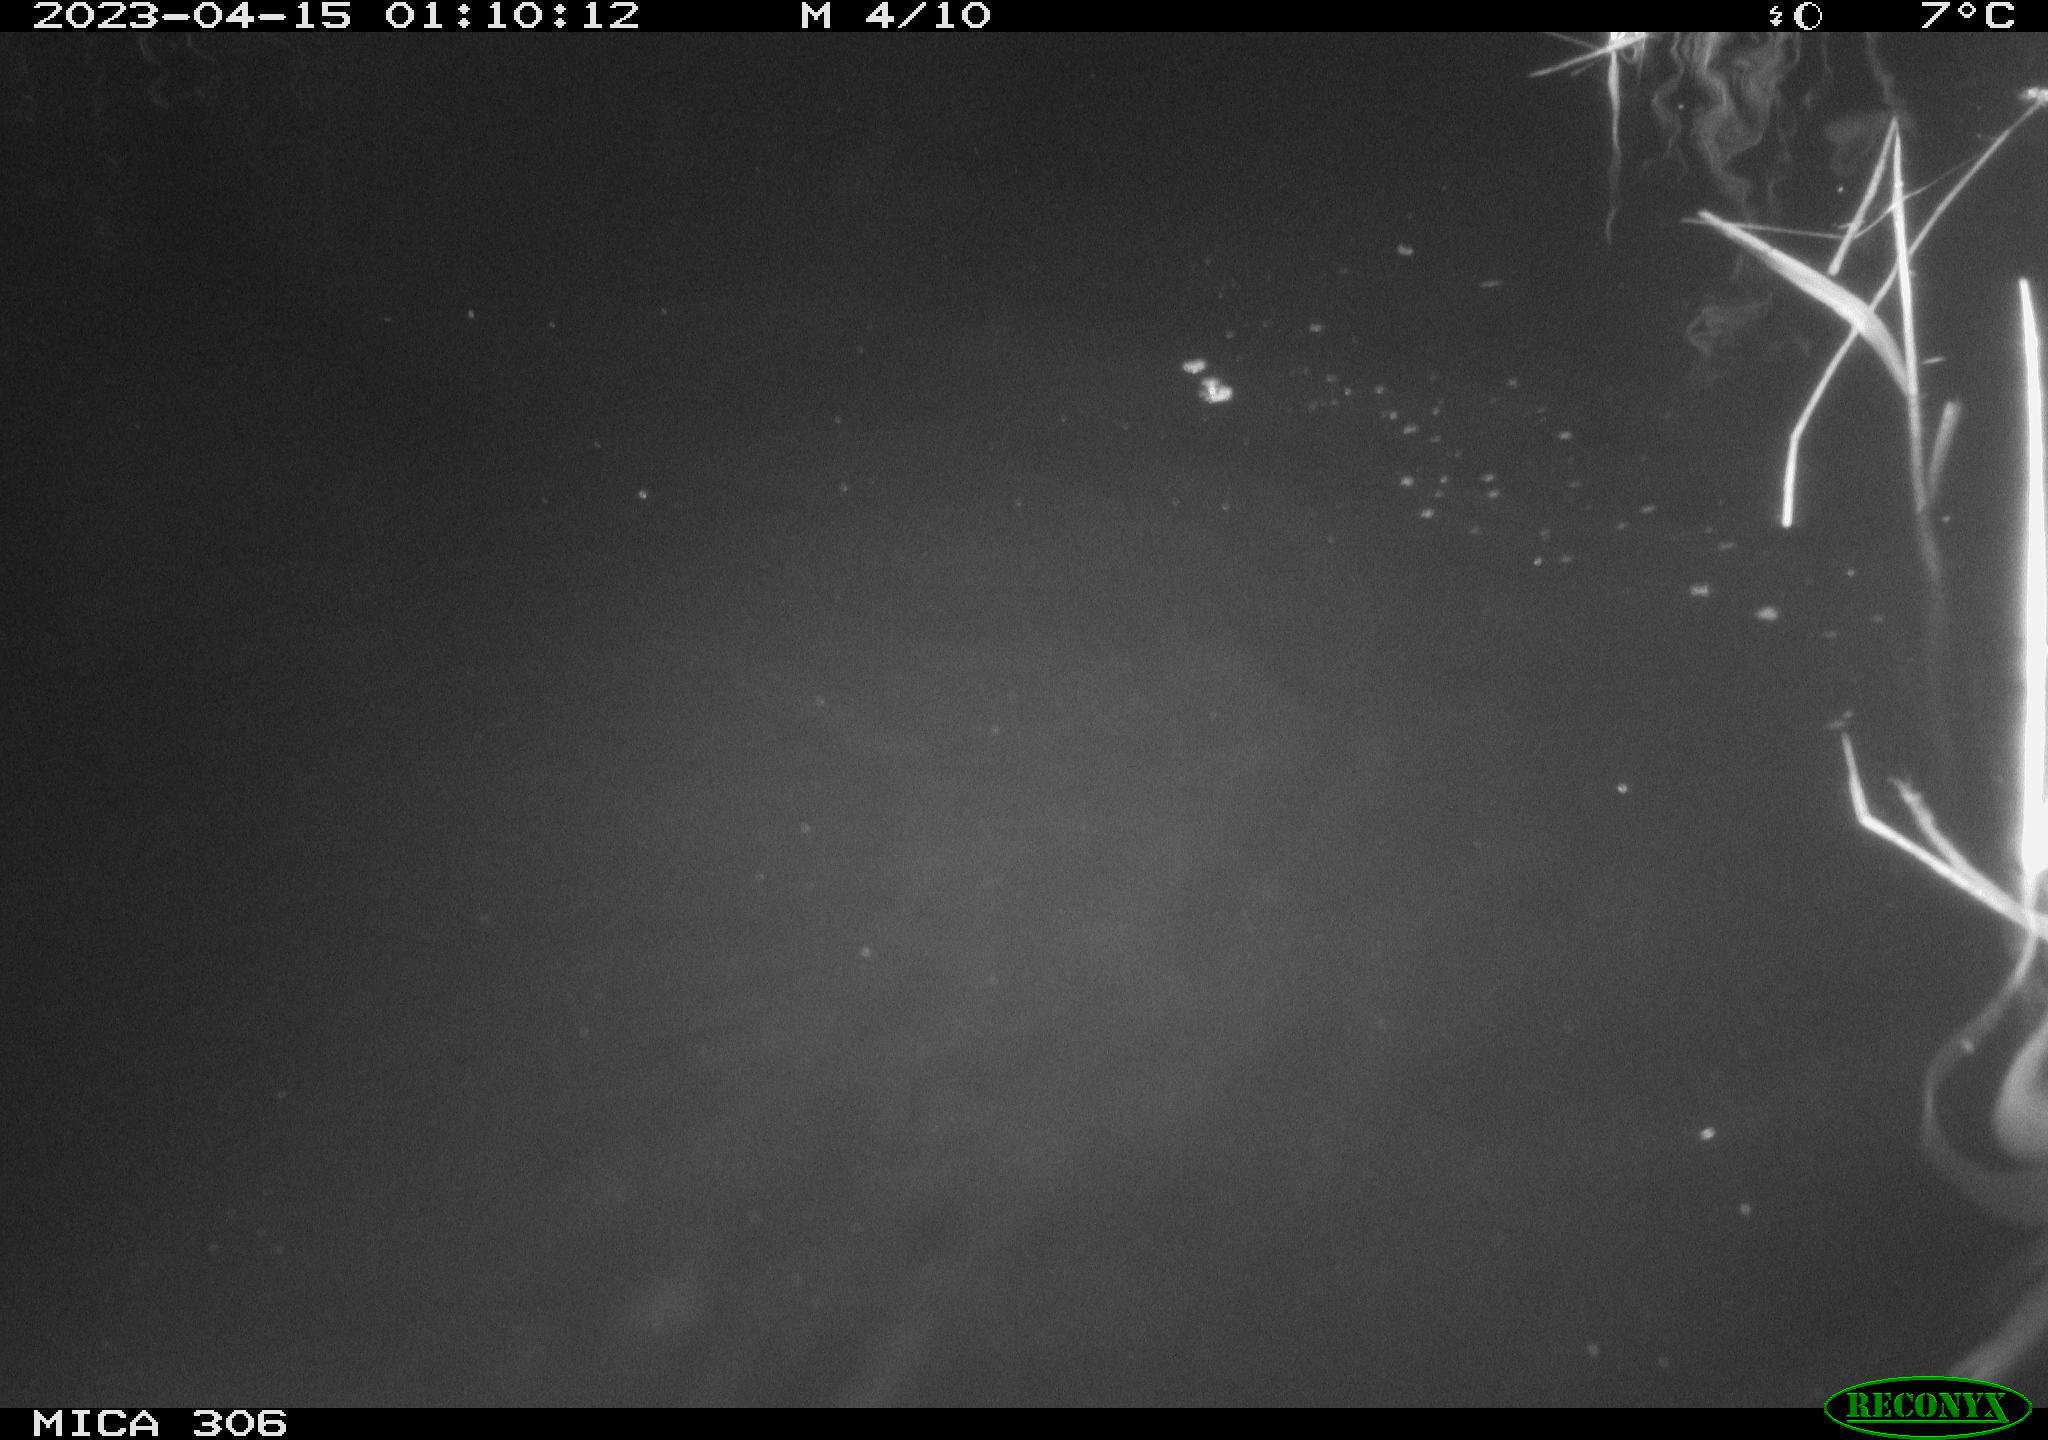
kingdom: Animalia
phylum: Chordata
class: Aves
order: Anseriformes
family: Anatidae
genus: Anas
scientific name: Anas
